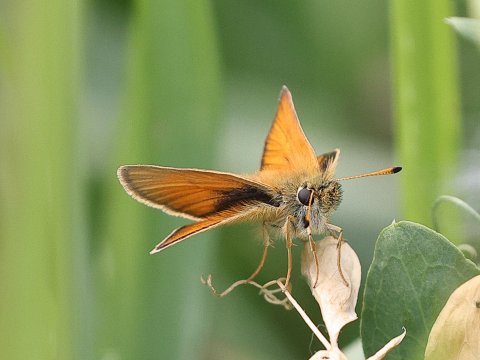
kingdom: Animalia
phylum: Arthropoda
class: Insecta
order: Lepidoptera
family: Hesperiidae
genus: Thymelicus
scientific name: Thymelicus lineola
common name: European Skipper
